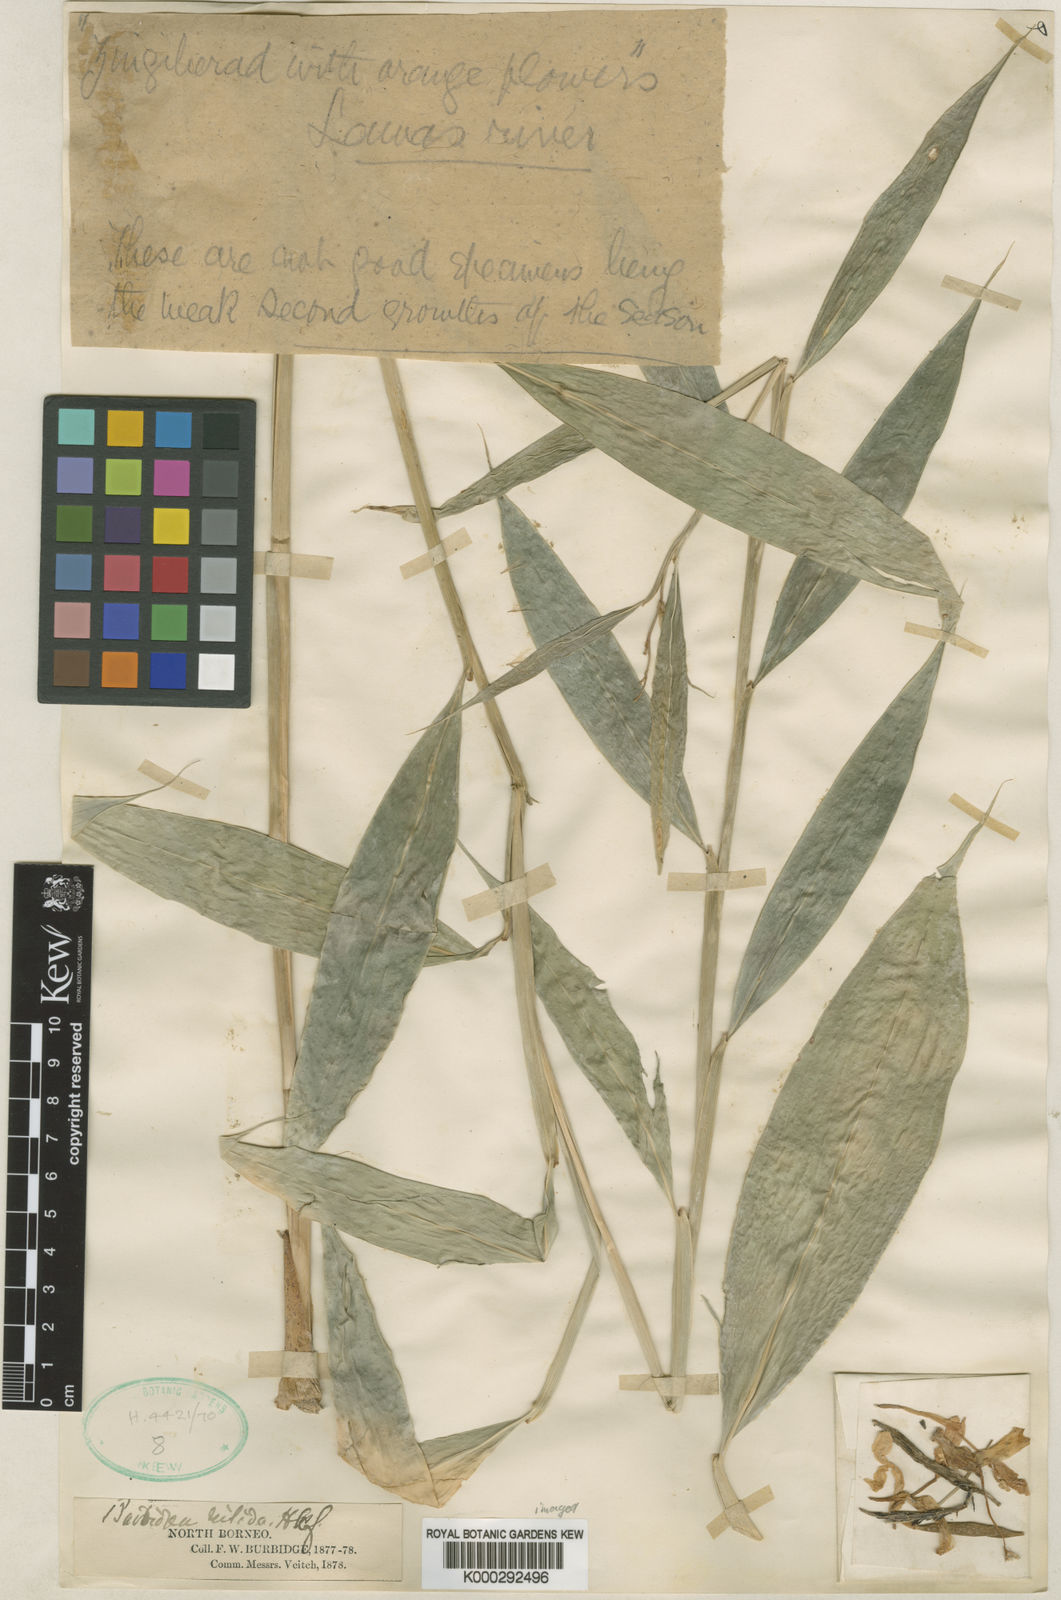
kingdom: Plantae
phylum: Tracheophyta
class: Liliopsida
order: Zingiberales
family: Zingiberaceae
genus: Burbidgea
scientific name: Burbidgea nitida
